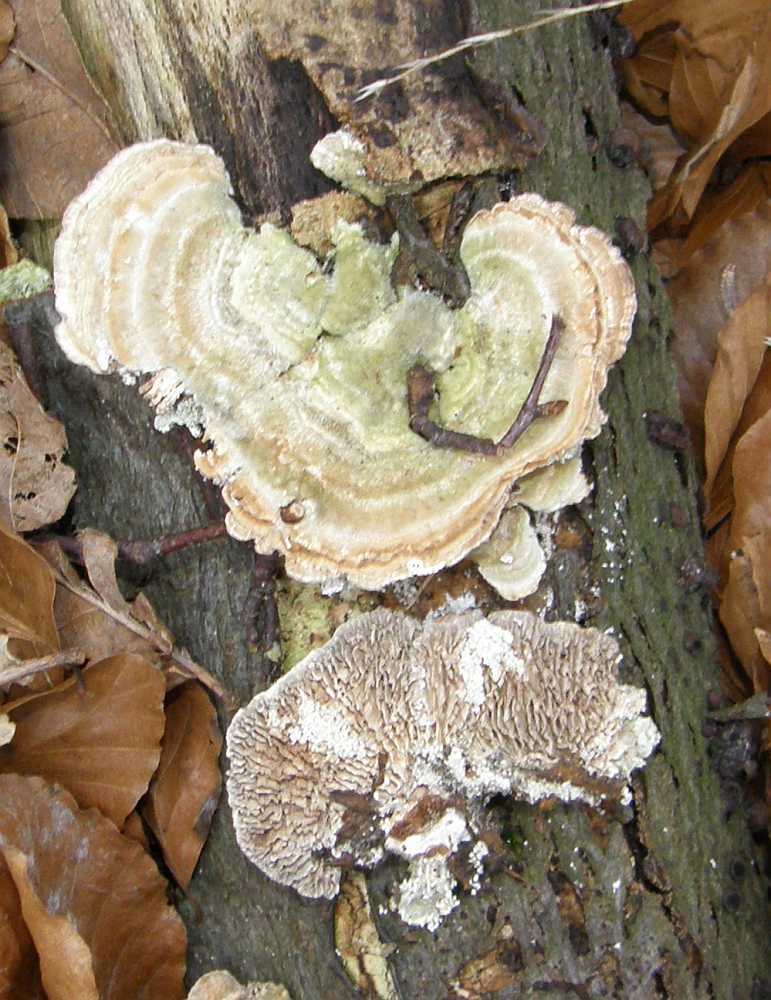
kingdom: Fungi
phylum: Basidiomycota
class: Agaricomycetes
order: Polyporales
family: Polyporaceae
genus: Lenzites
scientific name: Lenzites betulinus
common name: birke-læderporesvamp
